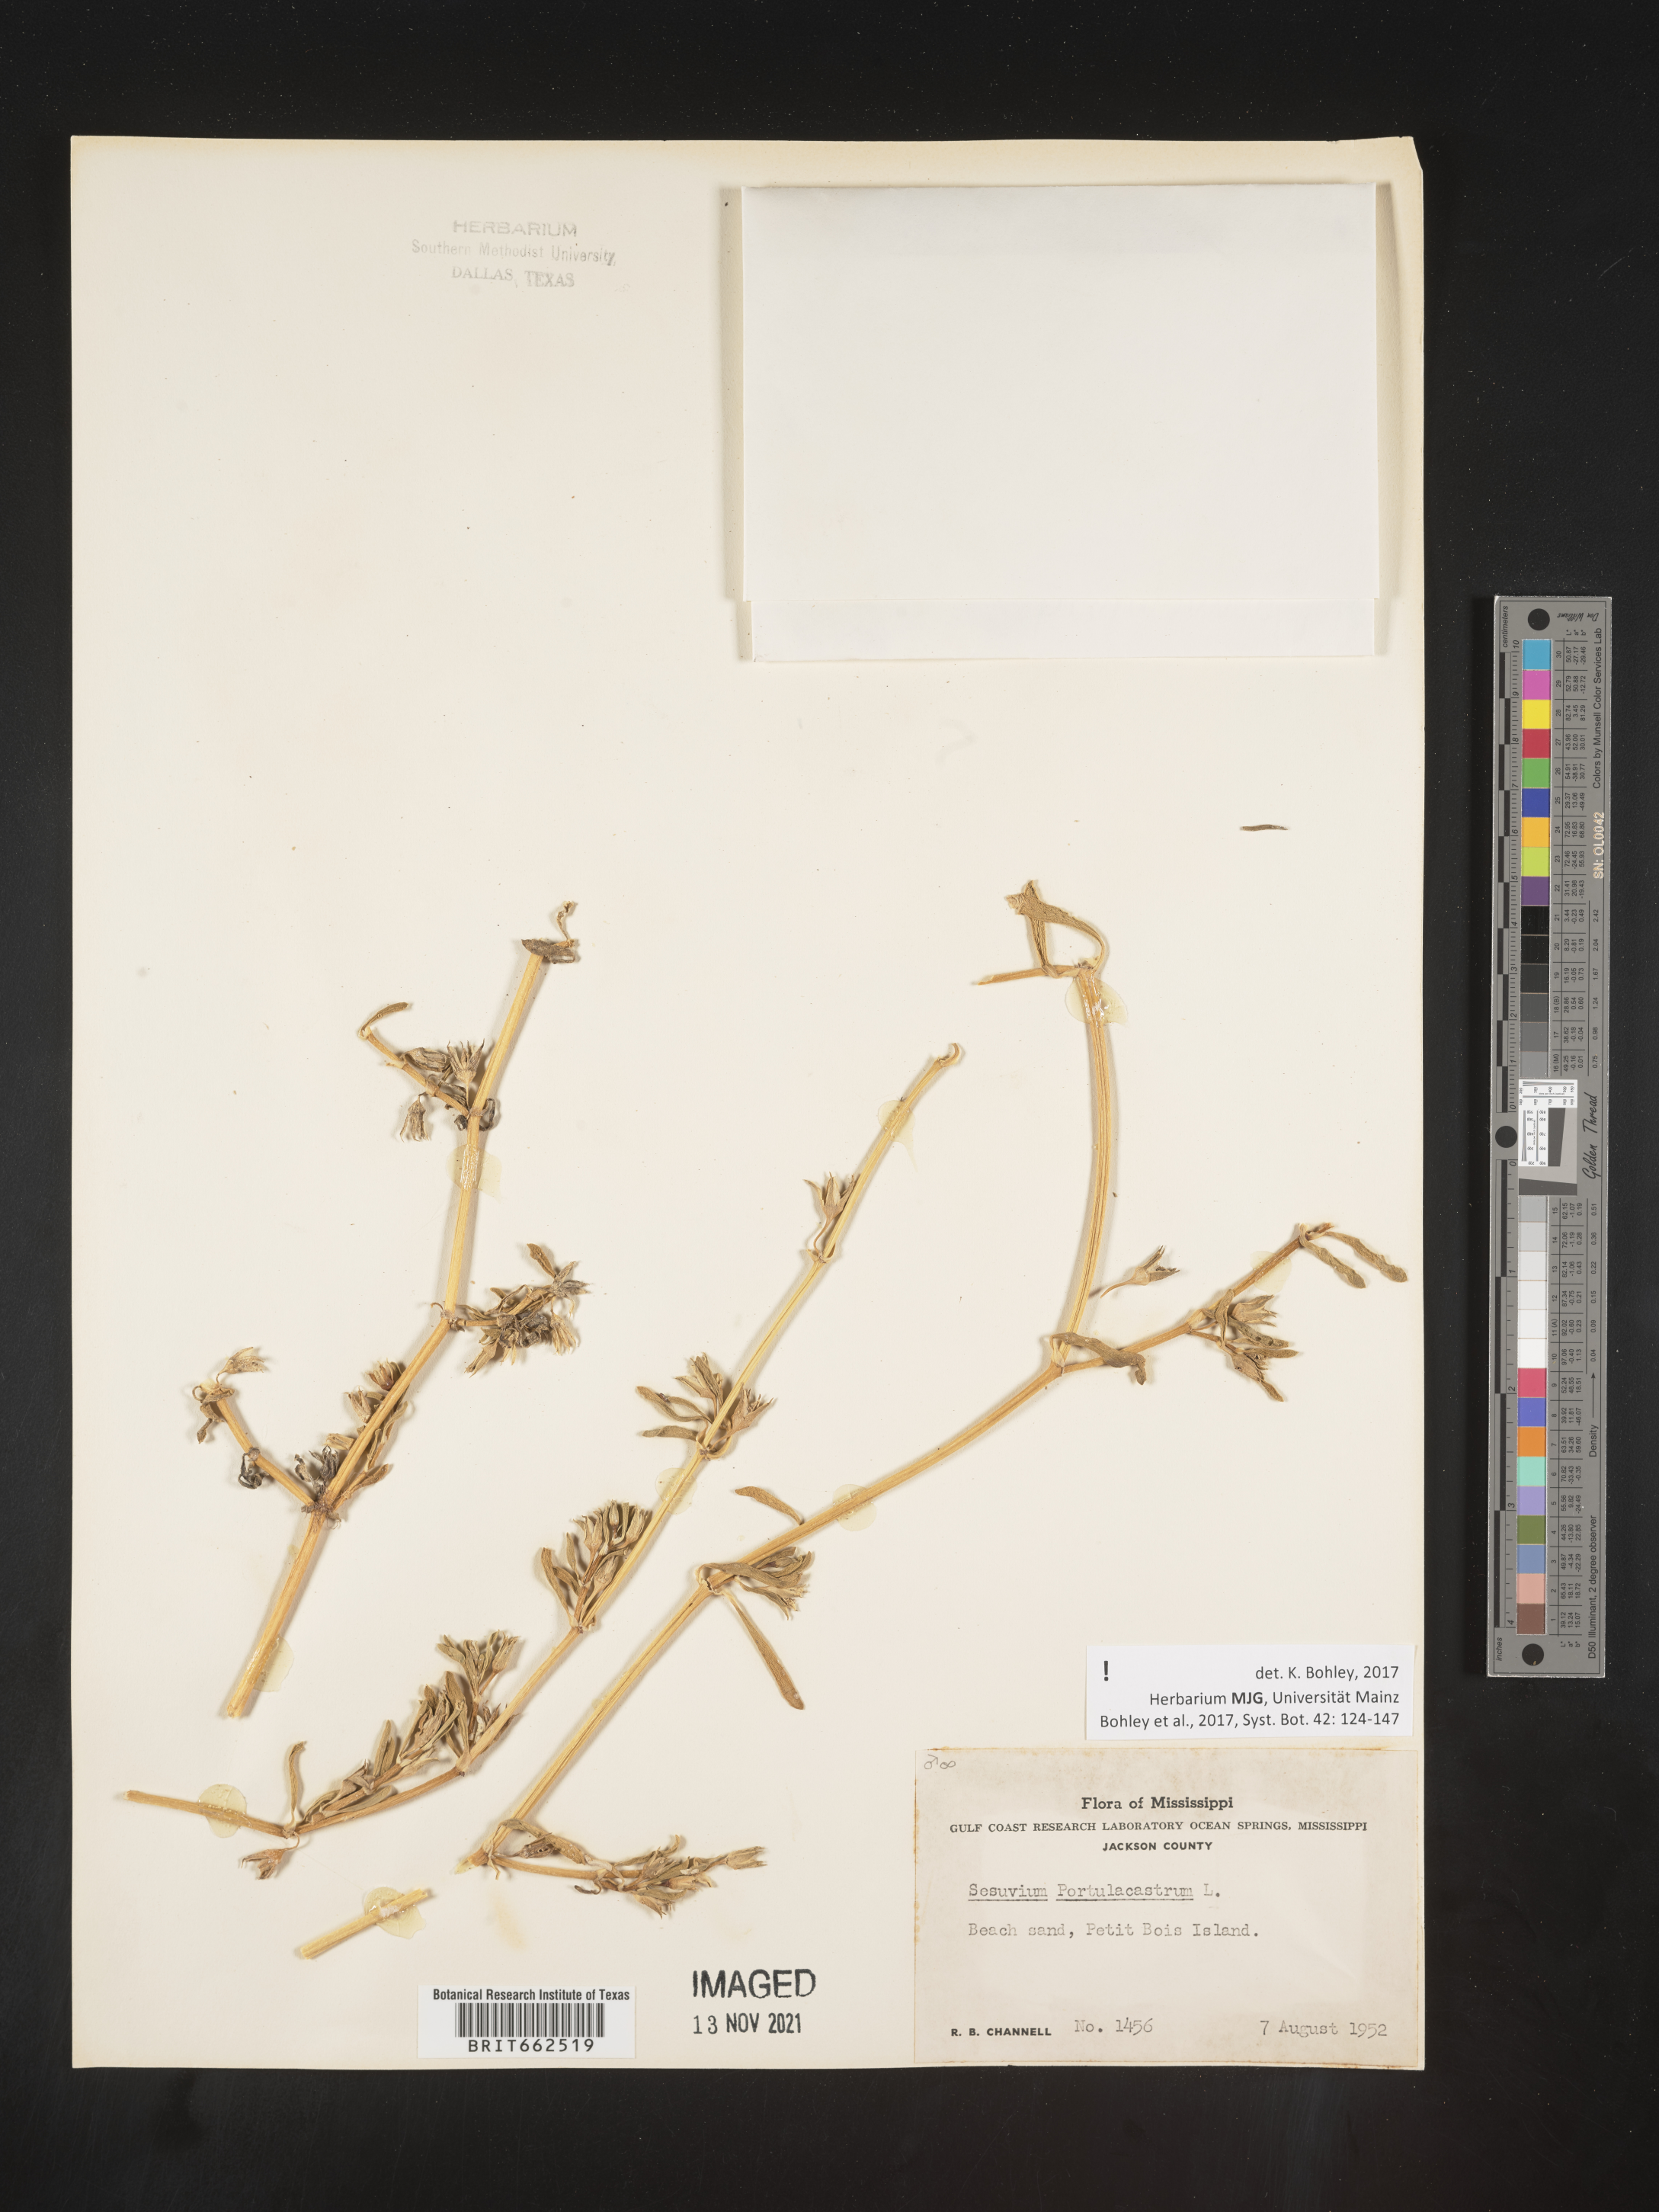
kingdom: Plantae
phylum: Tracheophyta
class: Magnoliopsida
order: Caryophyllales
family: Aizoaceae
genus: Sesuvium
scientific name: Sesuvium portulacastrum
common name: Sea-purslane
